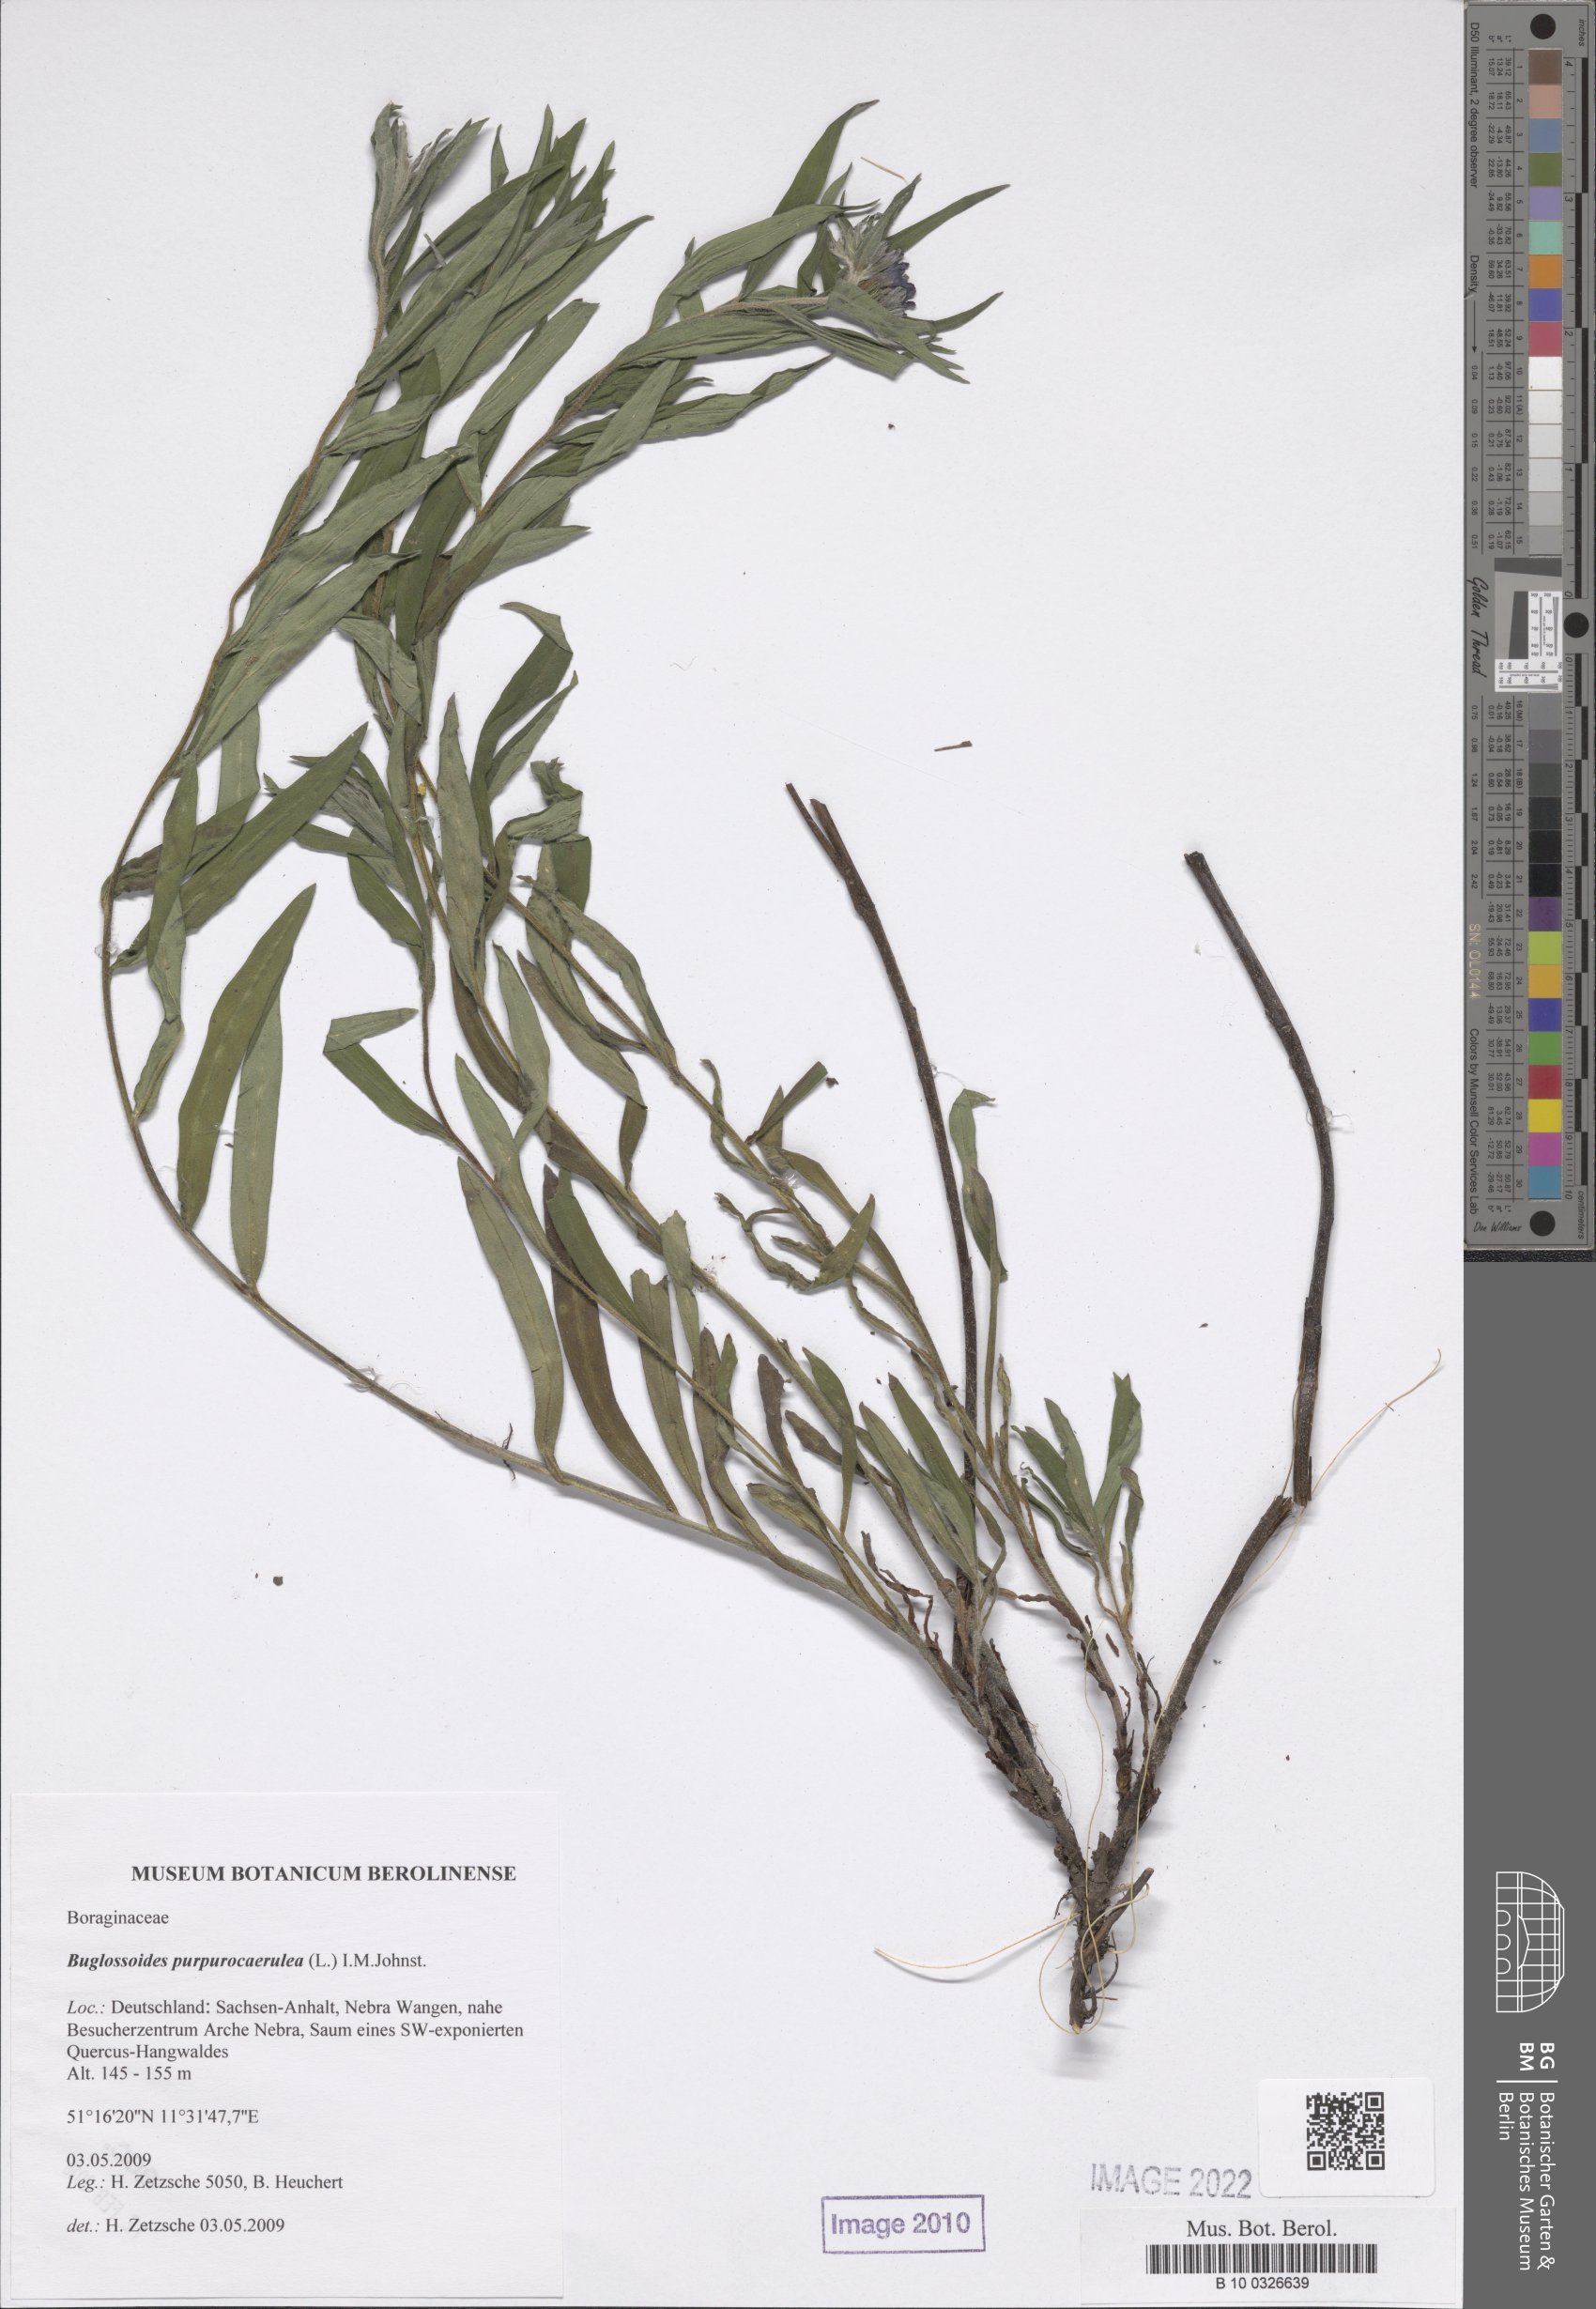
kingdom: Plantae
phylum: Tracheophyta
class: Magnoliopsida
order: Boraginales
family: Boraginaceae
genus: Aegonychon
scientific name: Aegonychon purpurocaeruleum
